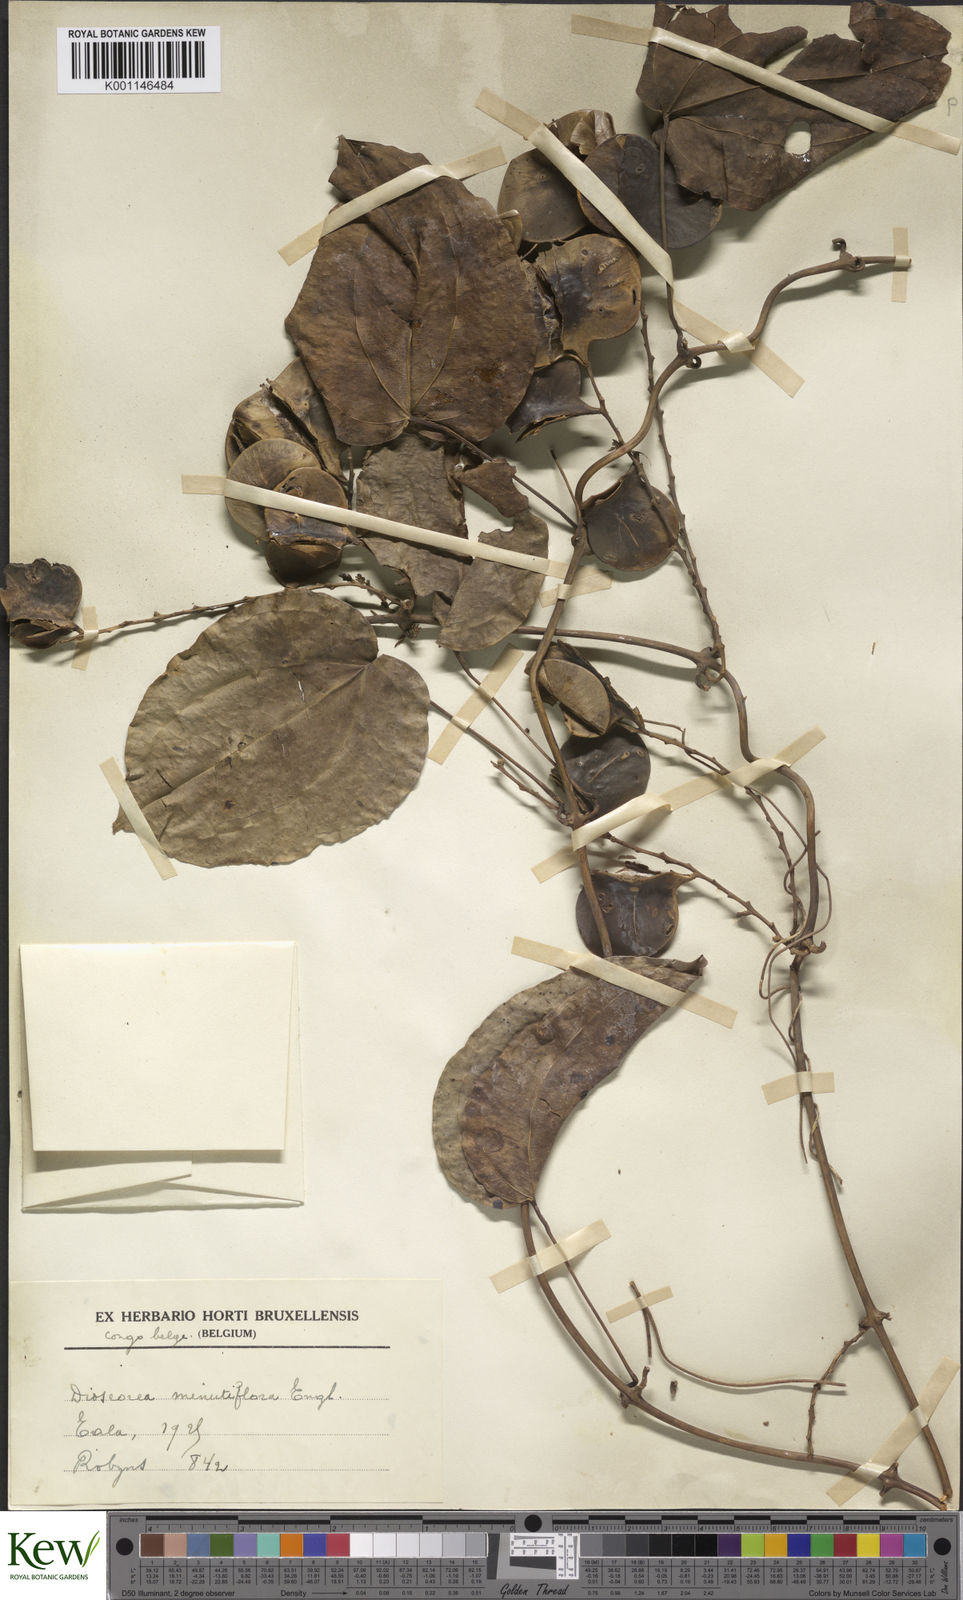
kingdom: Plantae
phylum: Tracheophyta
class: Liliopsida
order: Dioscoreales
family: Dioscoreaceae
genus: Dioscorea
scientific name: Dioscorea minutiflora
